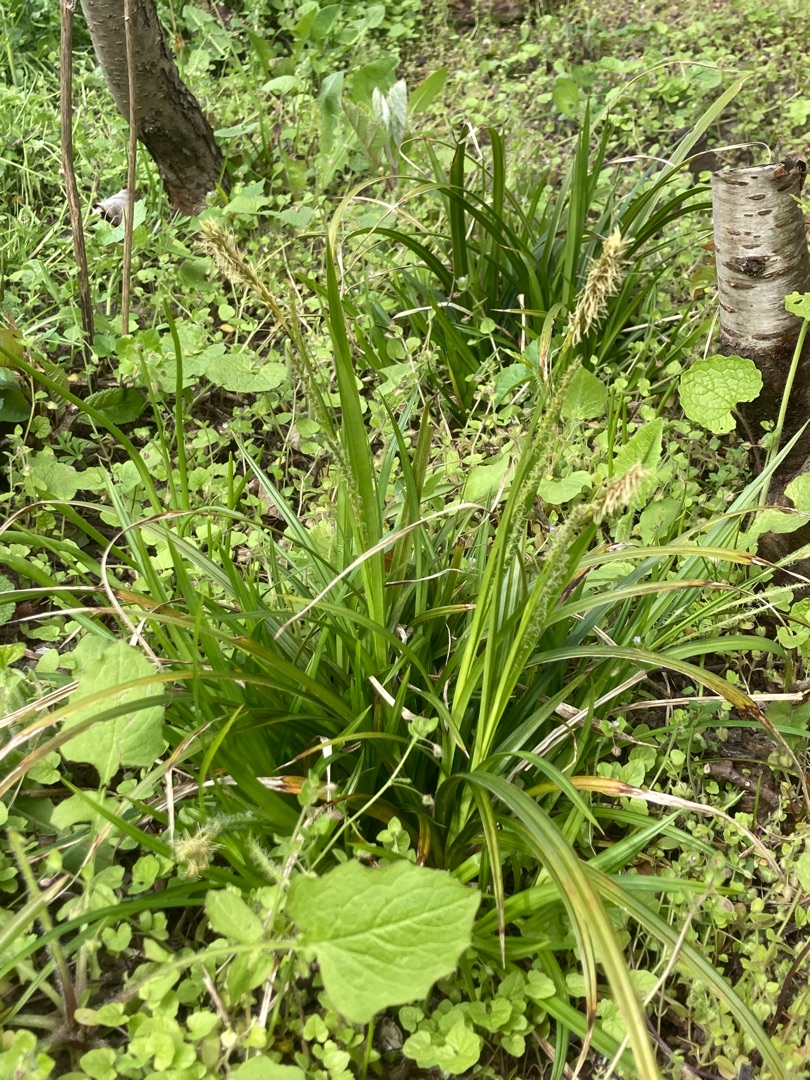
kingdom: Plantae
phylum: Tracheophyta
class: Liliopsida
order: Poales
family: Cyperaceae
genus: Carex
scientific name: Carex sylvatica
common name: Skov-star
